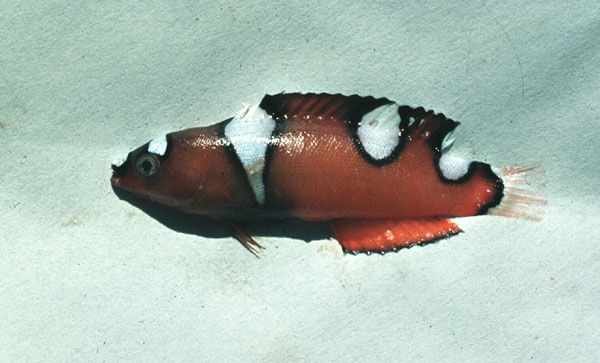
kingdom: Animalia
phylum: Chordata
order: Perciformes
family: Labridae
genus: Coris
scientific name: Coris cuvieri
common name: African coris
